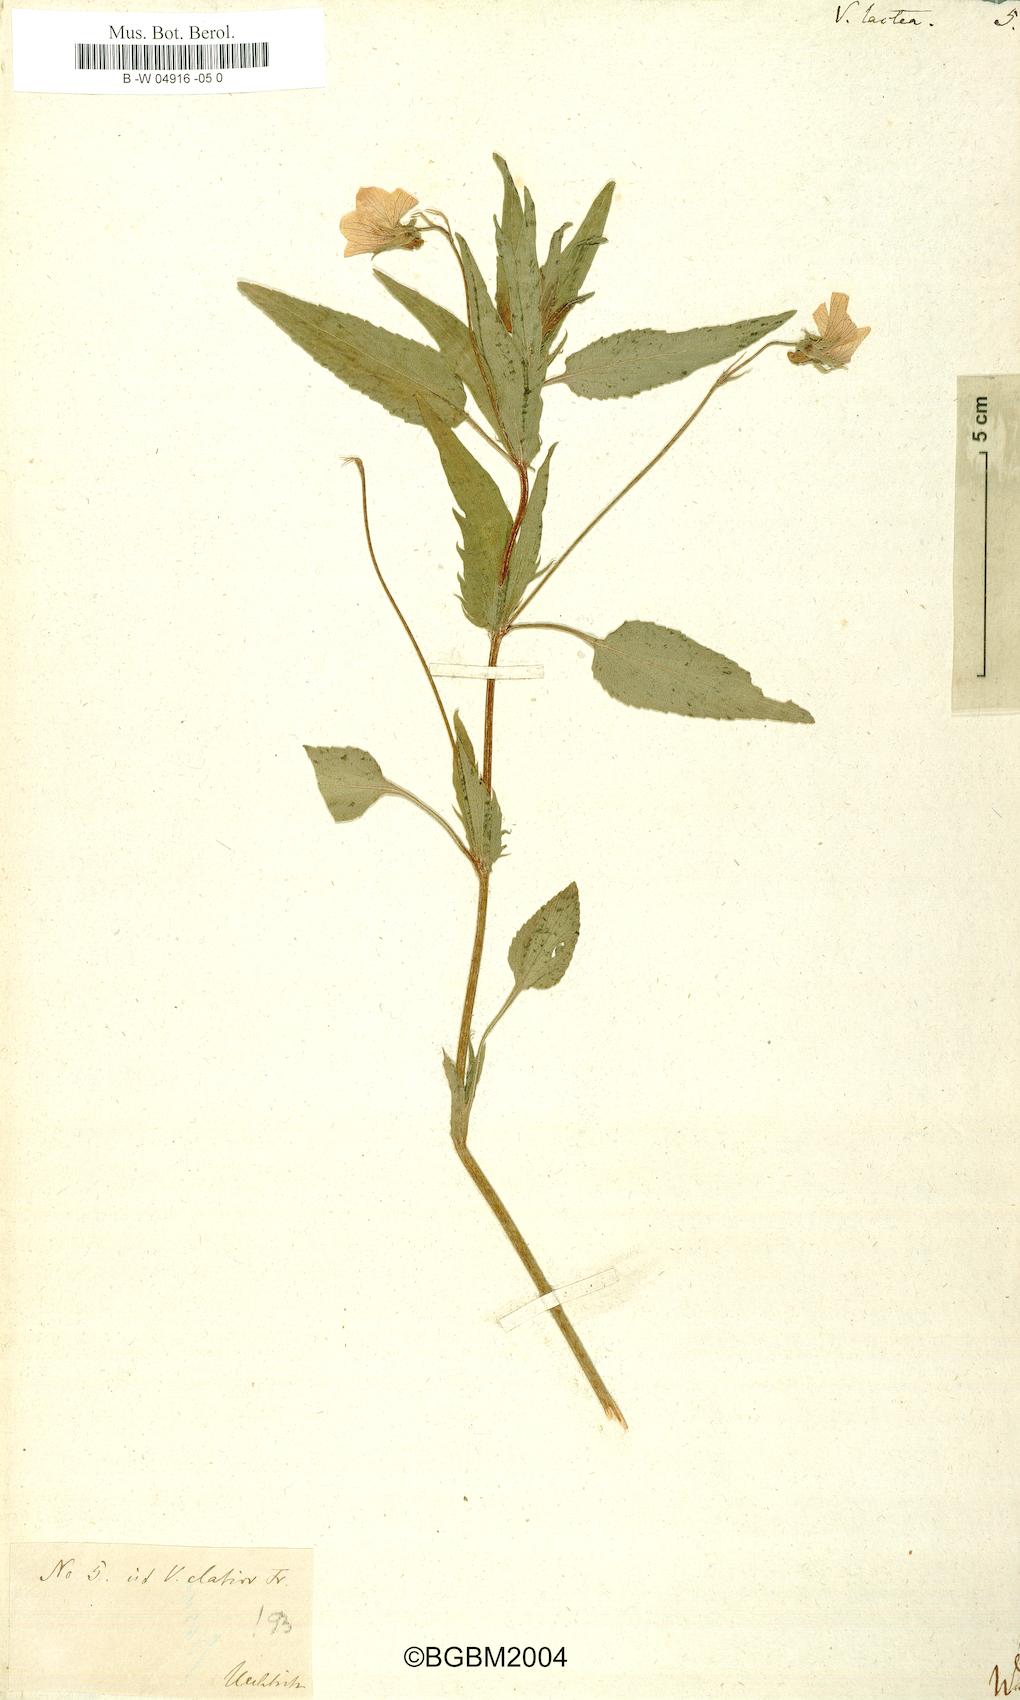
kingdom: Plantae
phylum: Tracheophyta
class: Magnoliopsida
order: Malpighiales
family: Violaceae
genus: Viola
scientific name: Viola lactea
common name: Pale dog-violet
